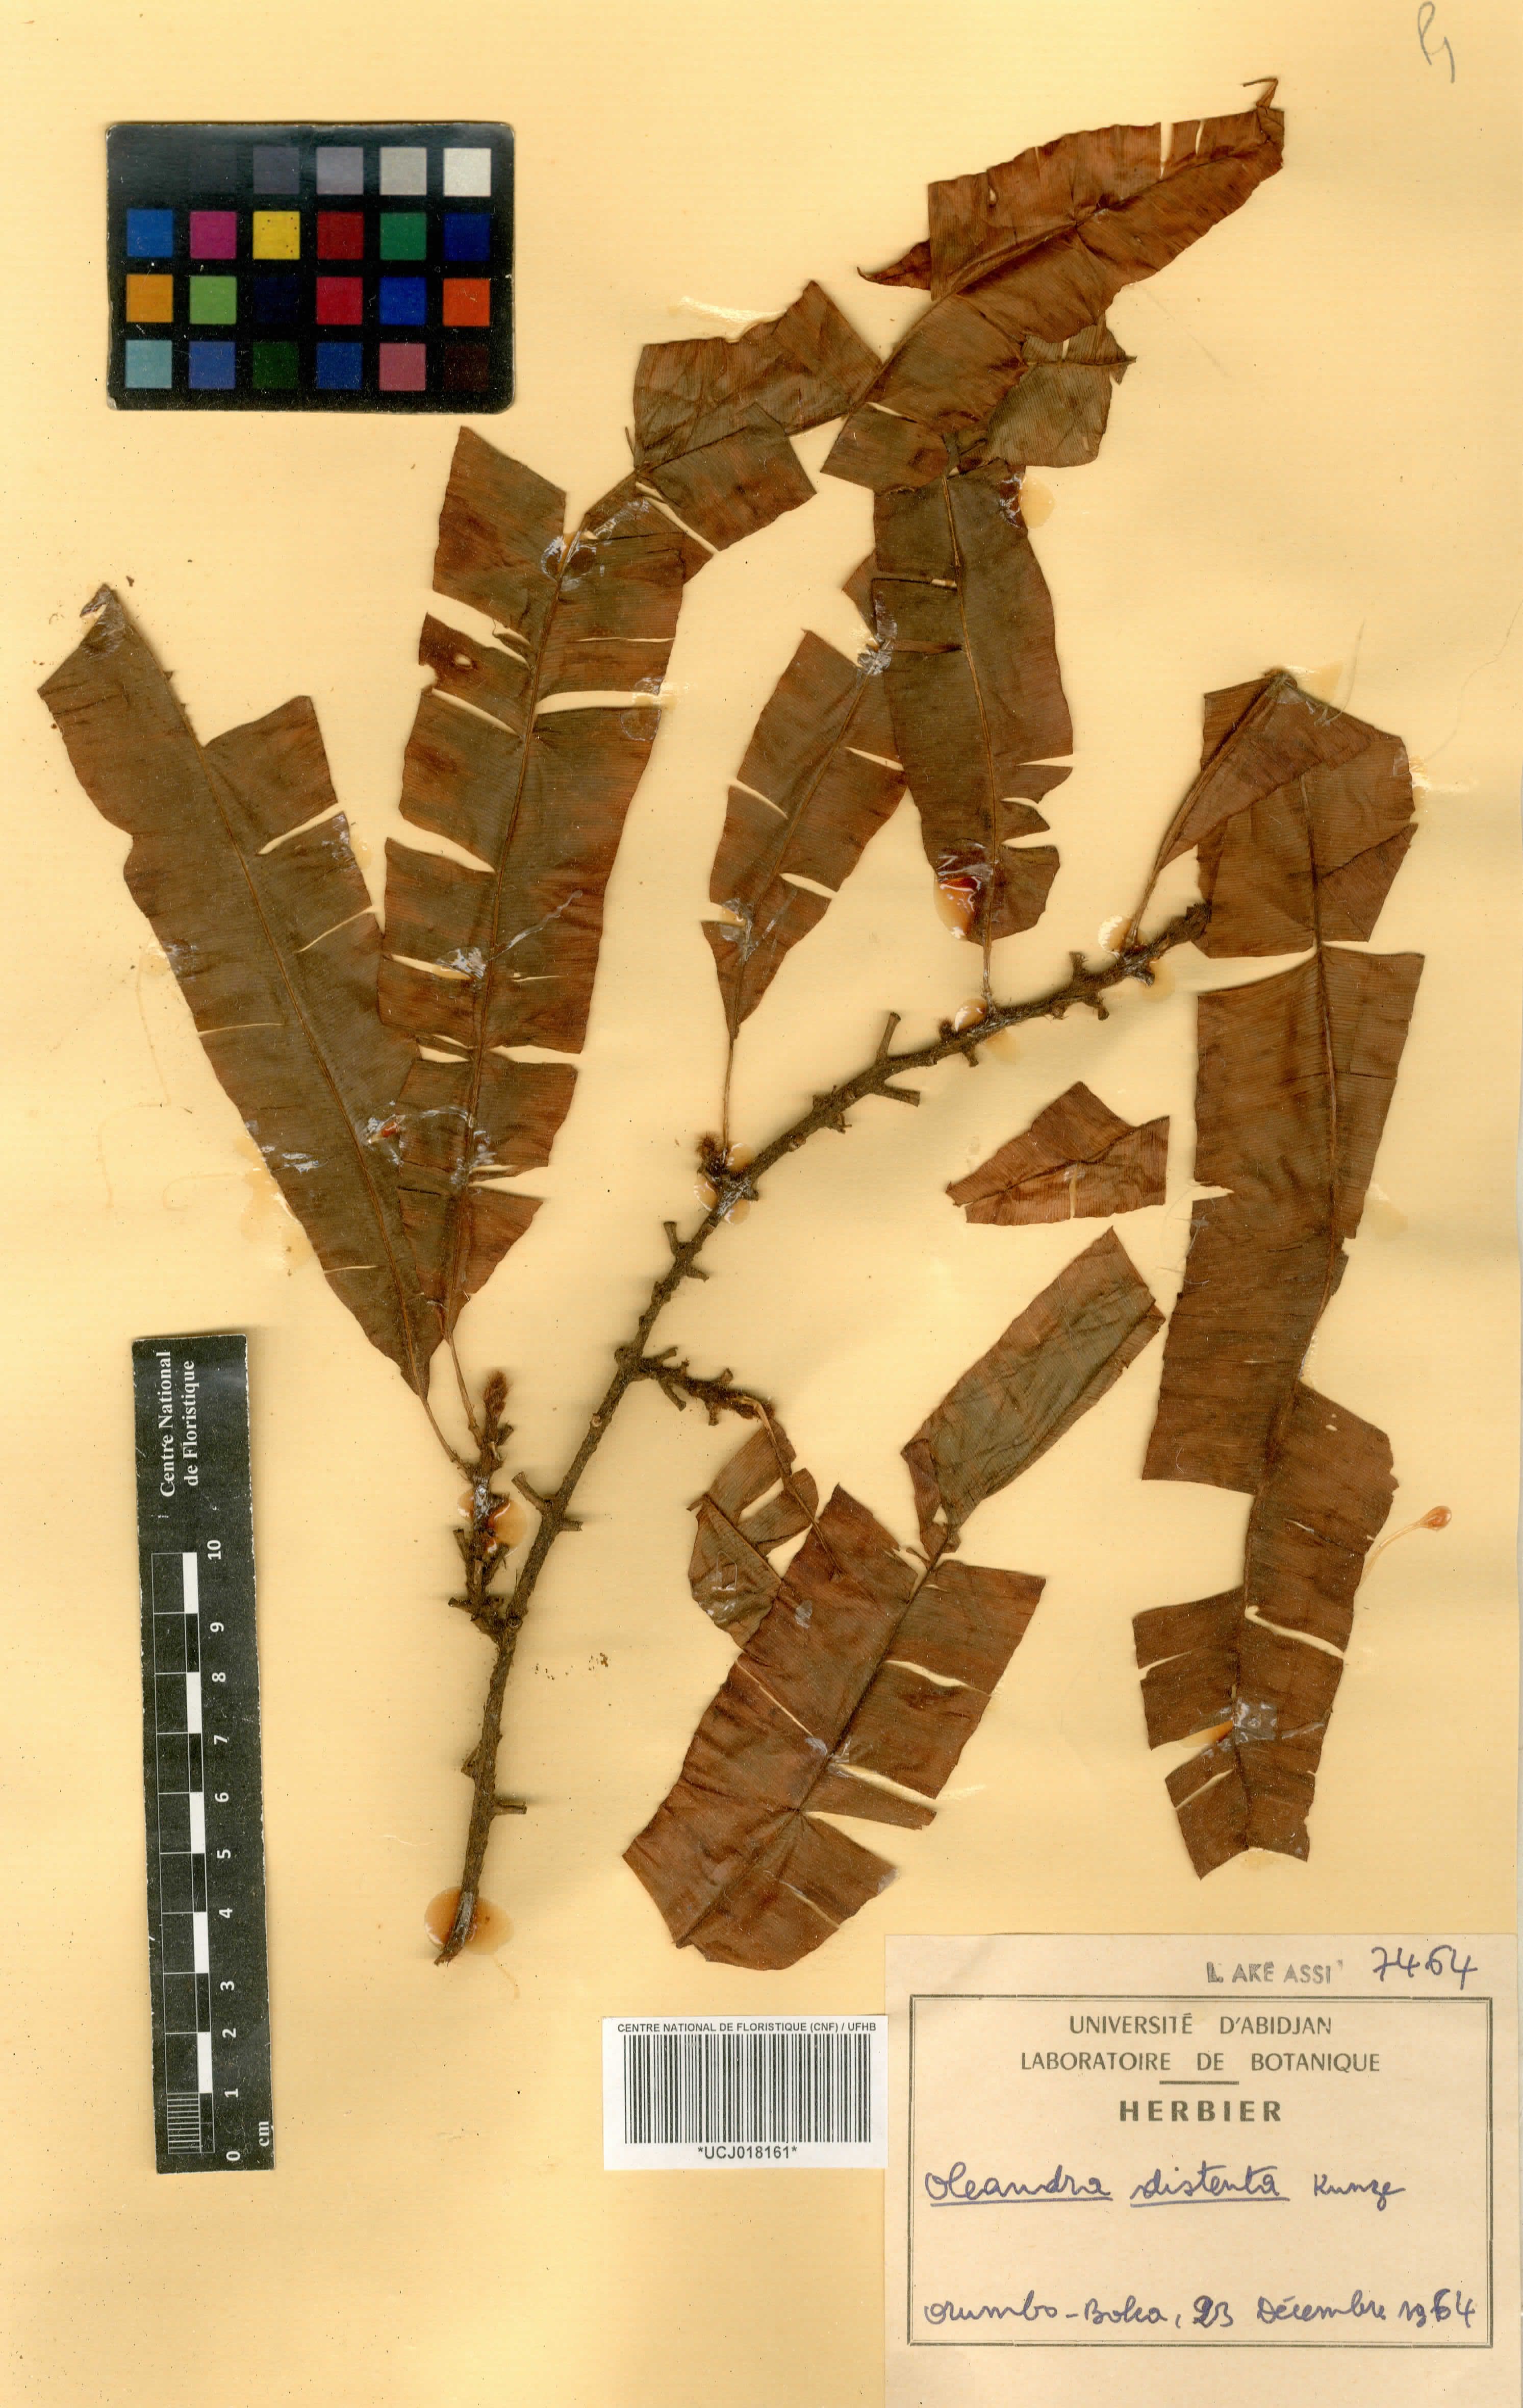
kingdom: Plantae
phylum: Tracheophyta
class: Polypodiopsida
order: Polypodiales
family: Oleandraceae
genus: Oleandra
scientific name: Oleandra distenta
